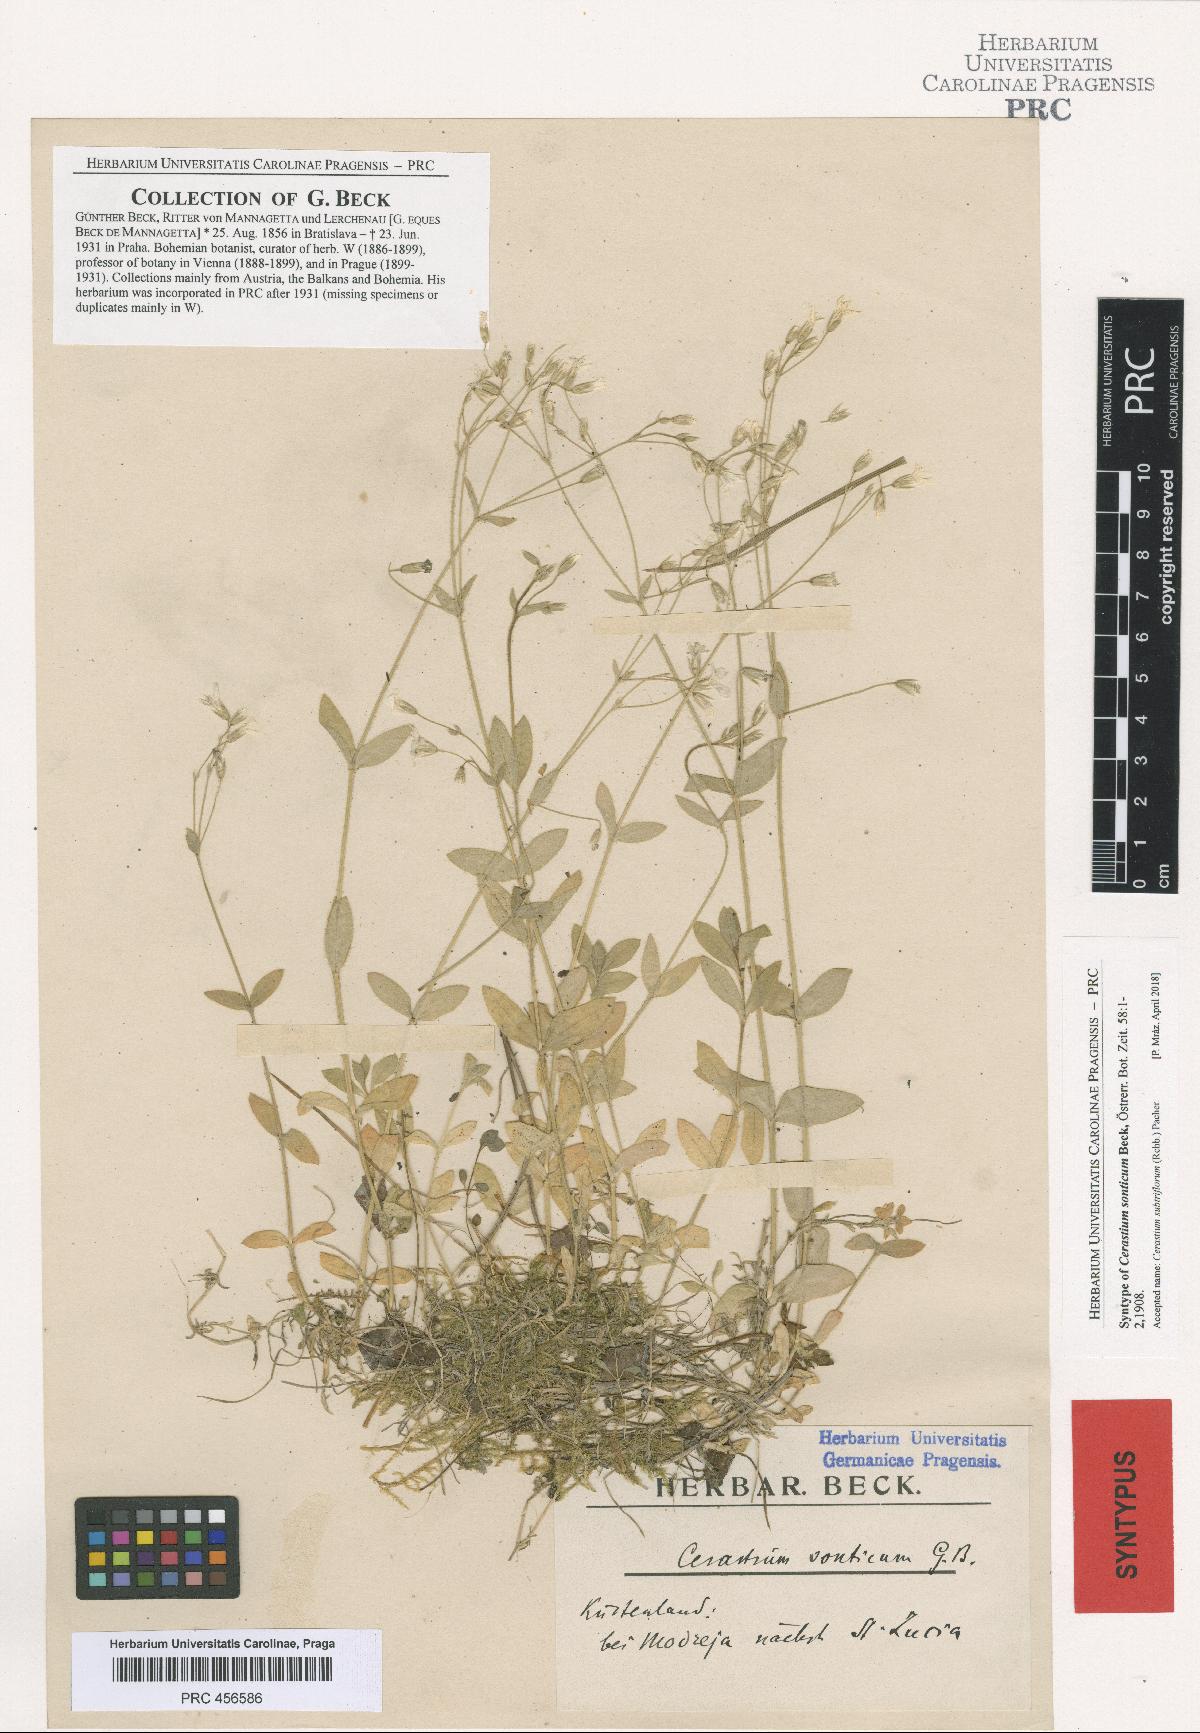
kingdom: Plantae
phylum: Tracheophyta
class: Magnoliopsida
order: Caryophyllales
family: Caryophyllaceae
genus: Cerastium
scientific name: Cerastium subtriflorum
